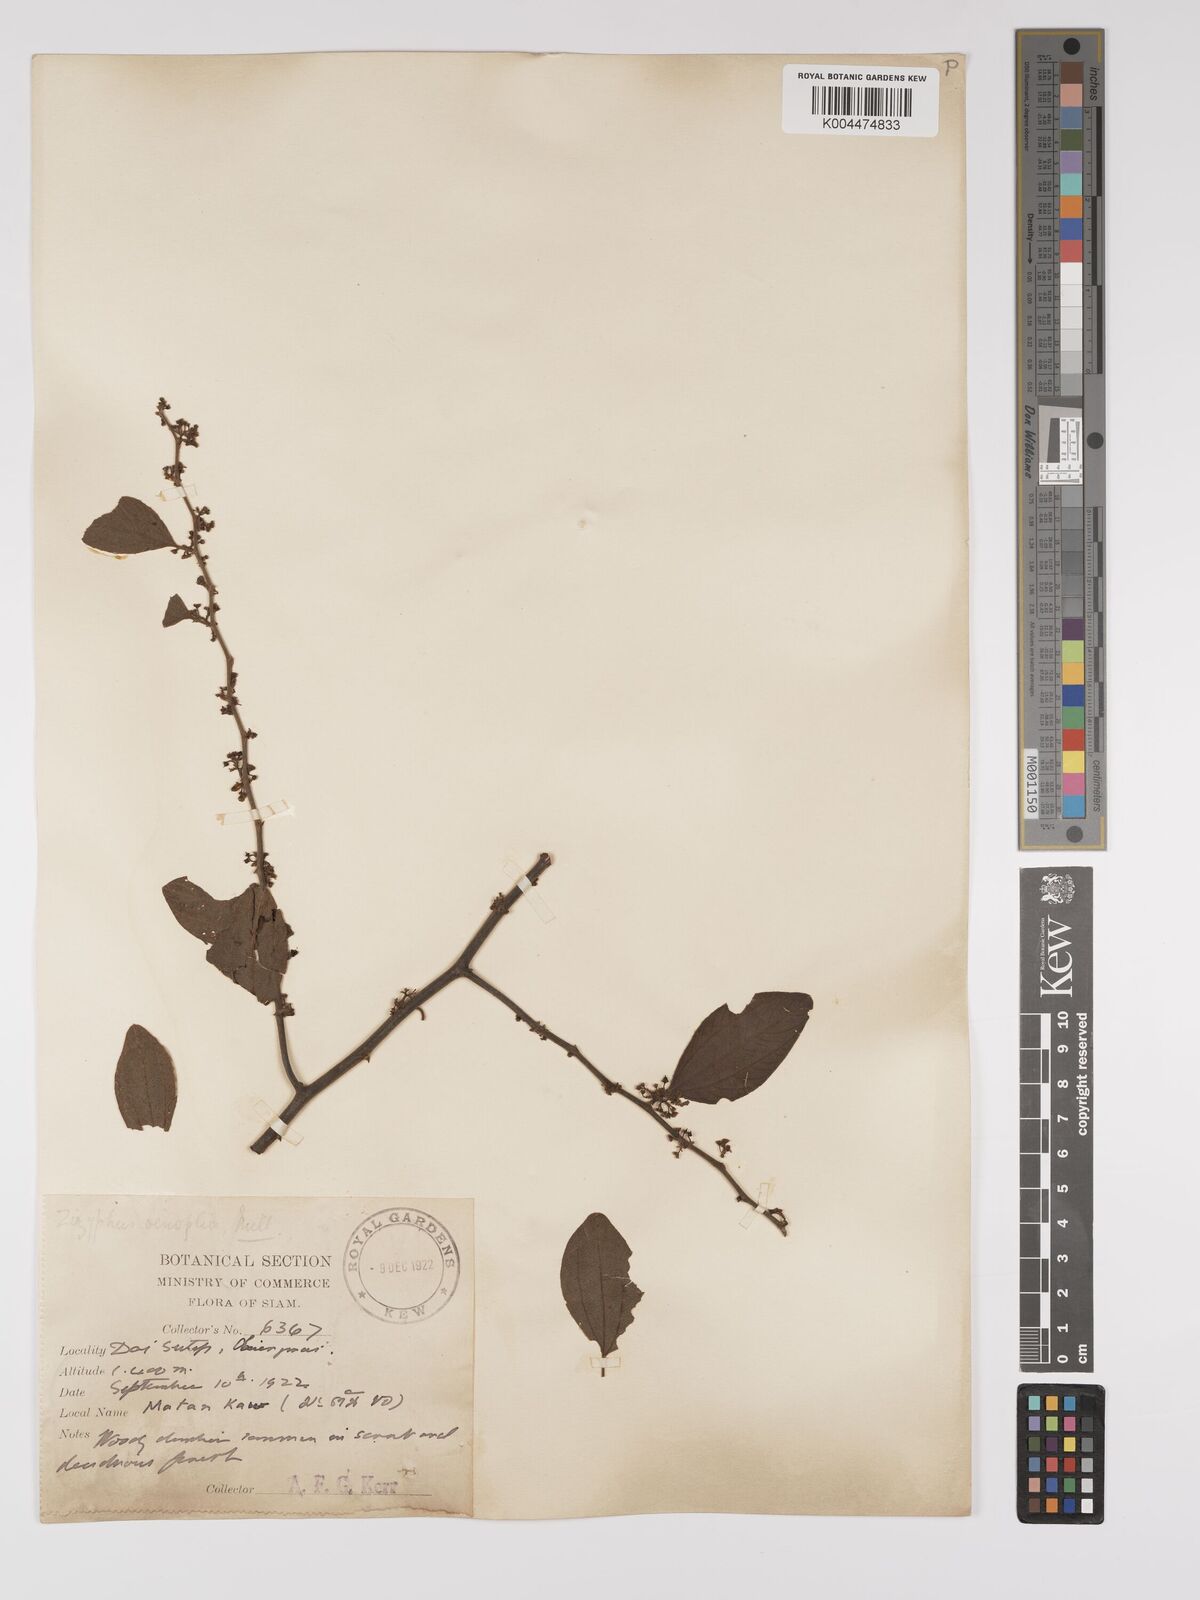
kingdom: Plantae
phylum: Tracheophyta
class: Magnoliopsida
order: Rosales
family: Rhamnaceae
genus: Ziziphus
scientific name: Ziziphus oenopolia
